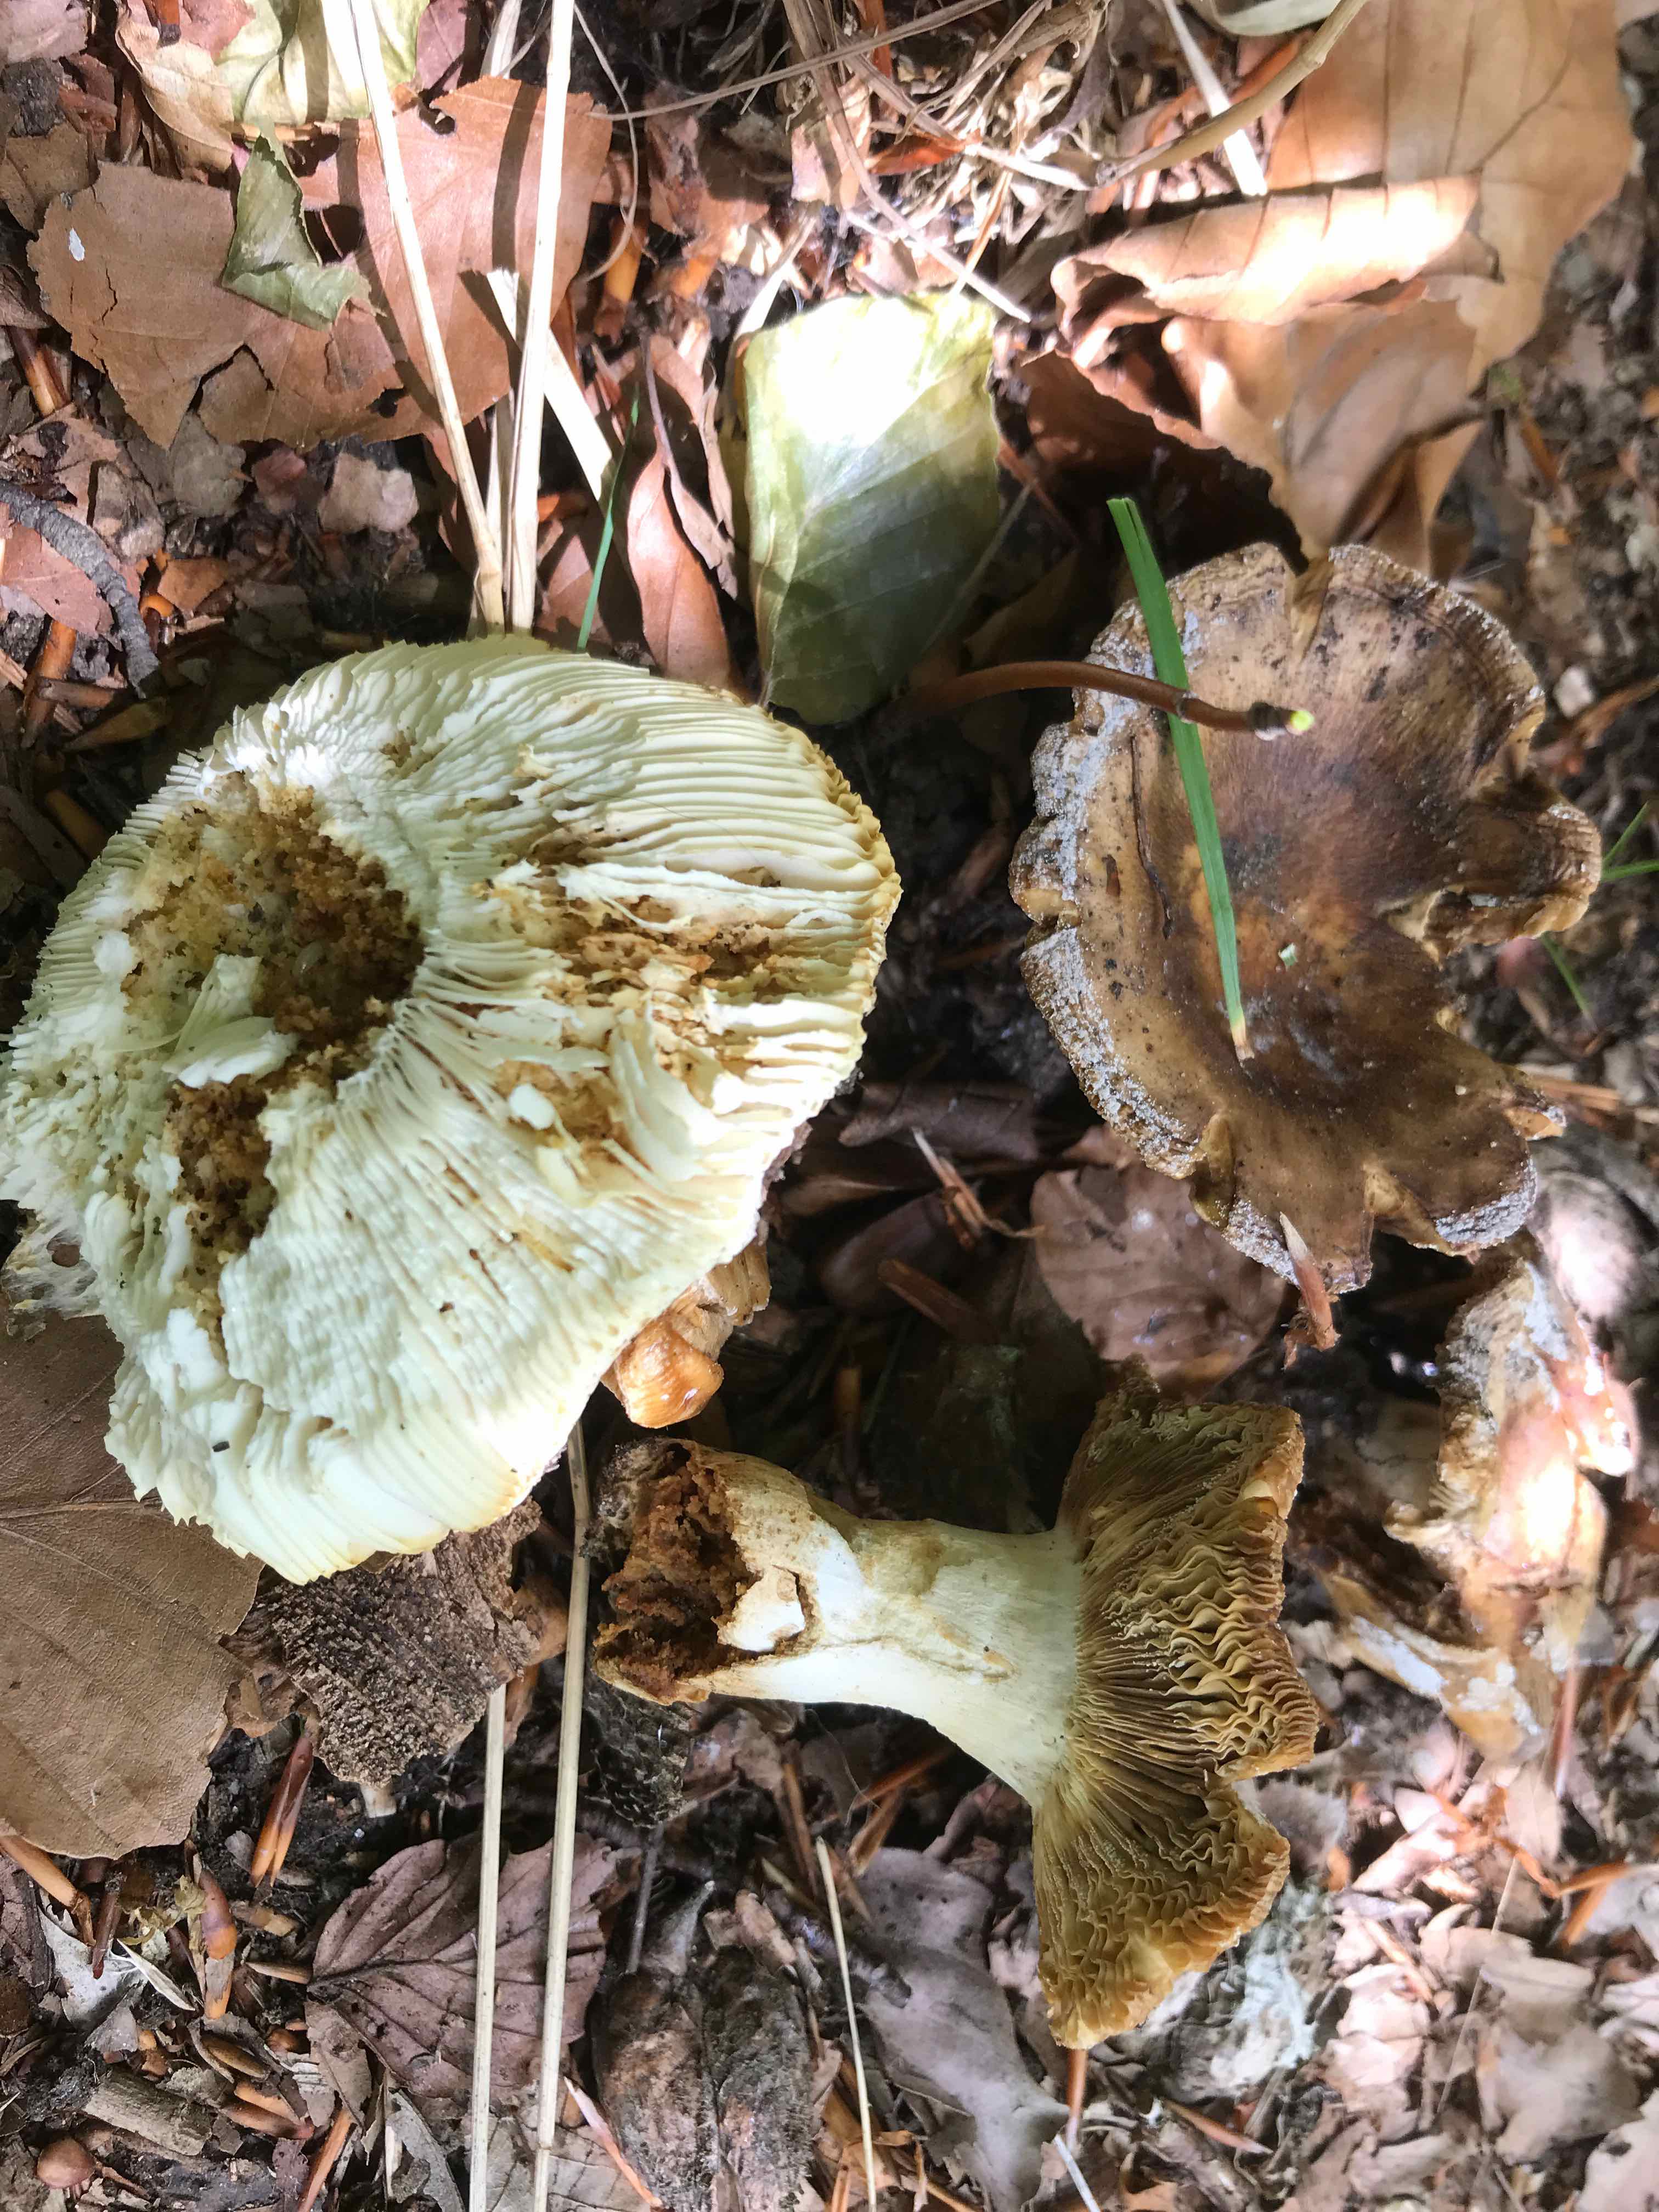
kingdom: Fungi
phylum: Basidiomycota
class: Agaricomycetes
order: Russulales
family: Russulaceae
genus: Russula
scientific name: Russula
